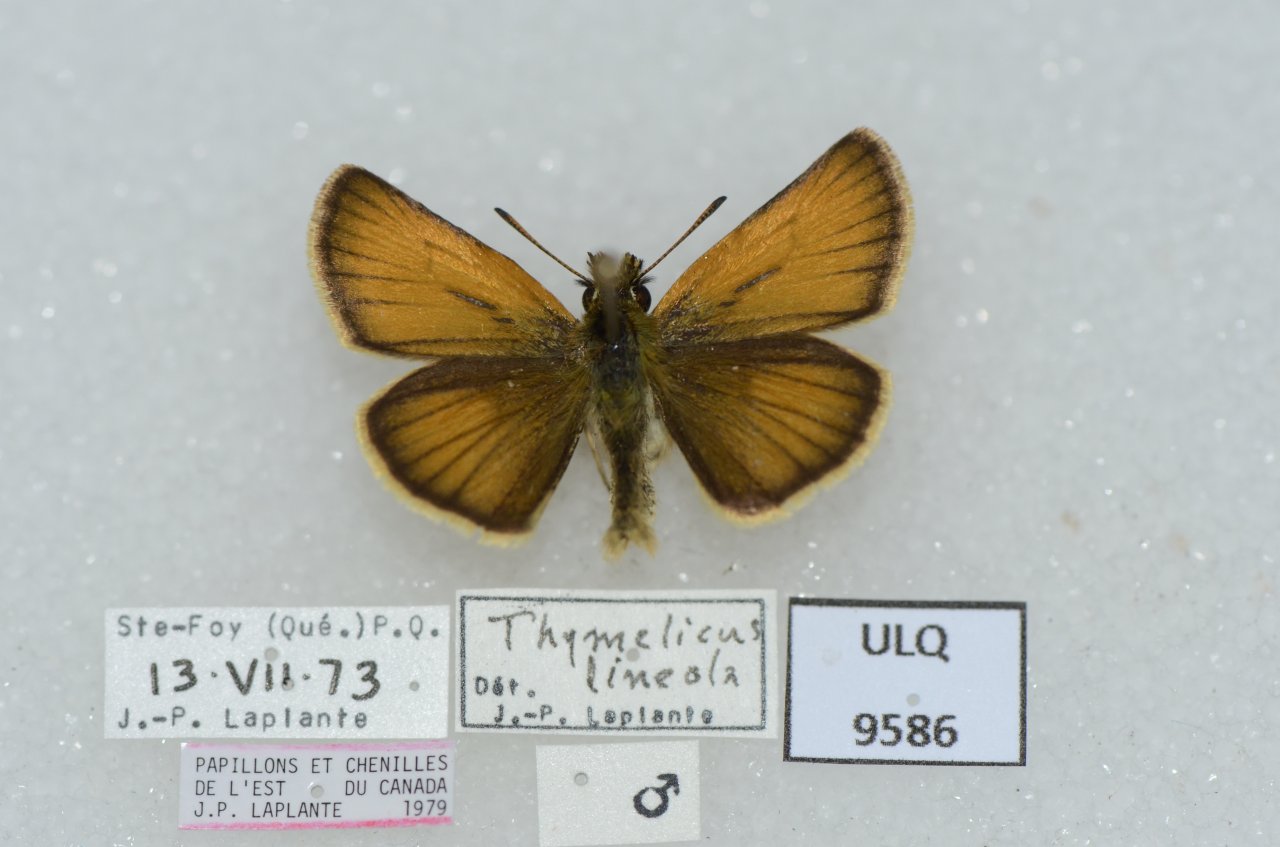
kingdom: Animalia
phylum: Arthropoda
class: Insecta
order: Lepidoptera
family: Hesperiidae
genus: Thymelicus
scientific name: Thymelicus lineola
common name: European Skipper
